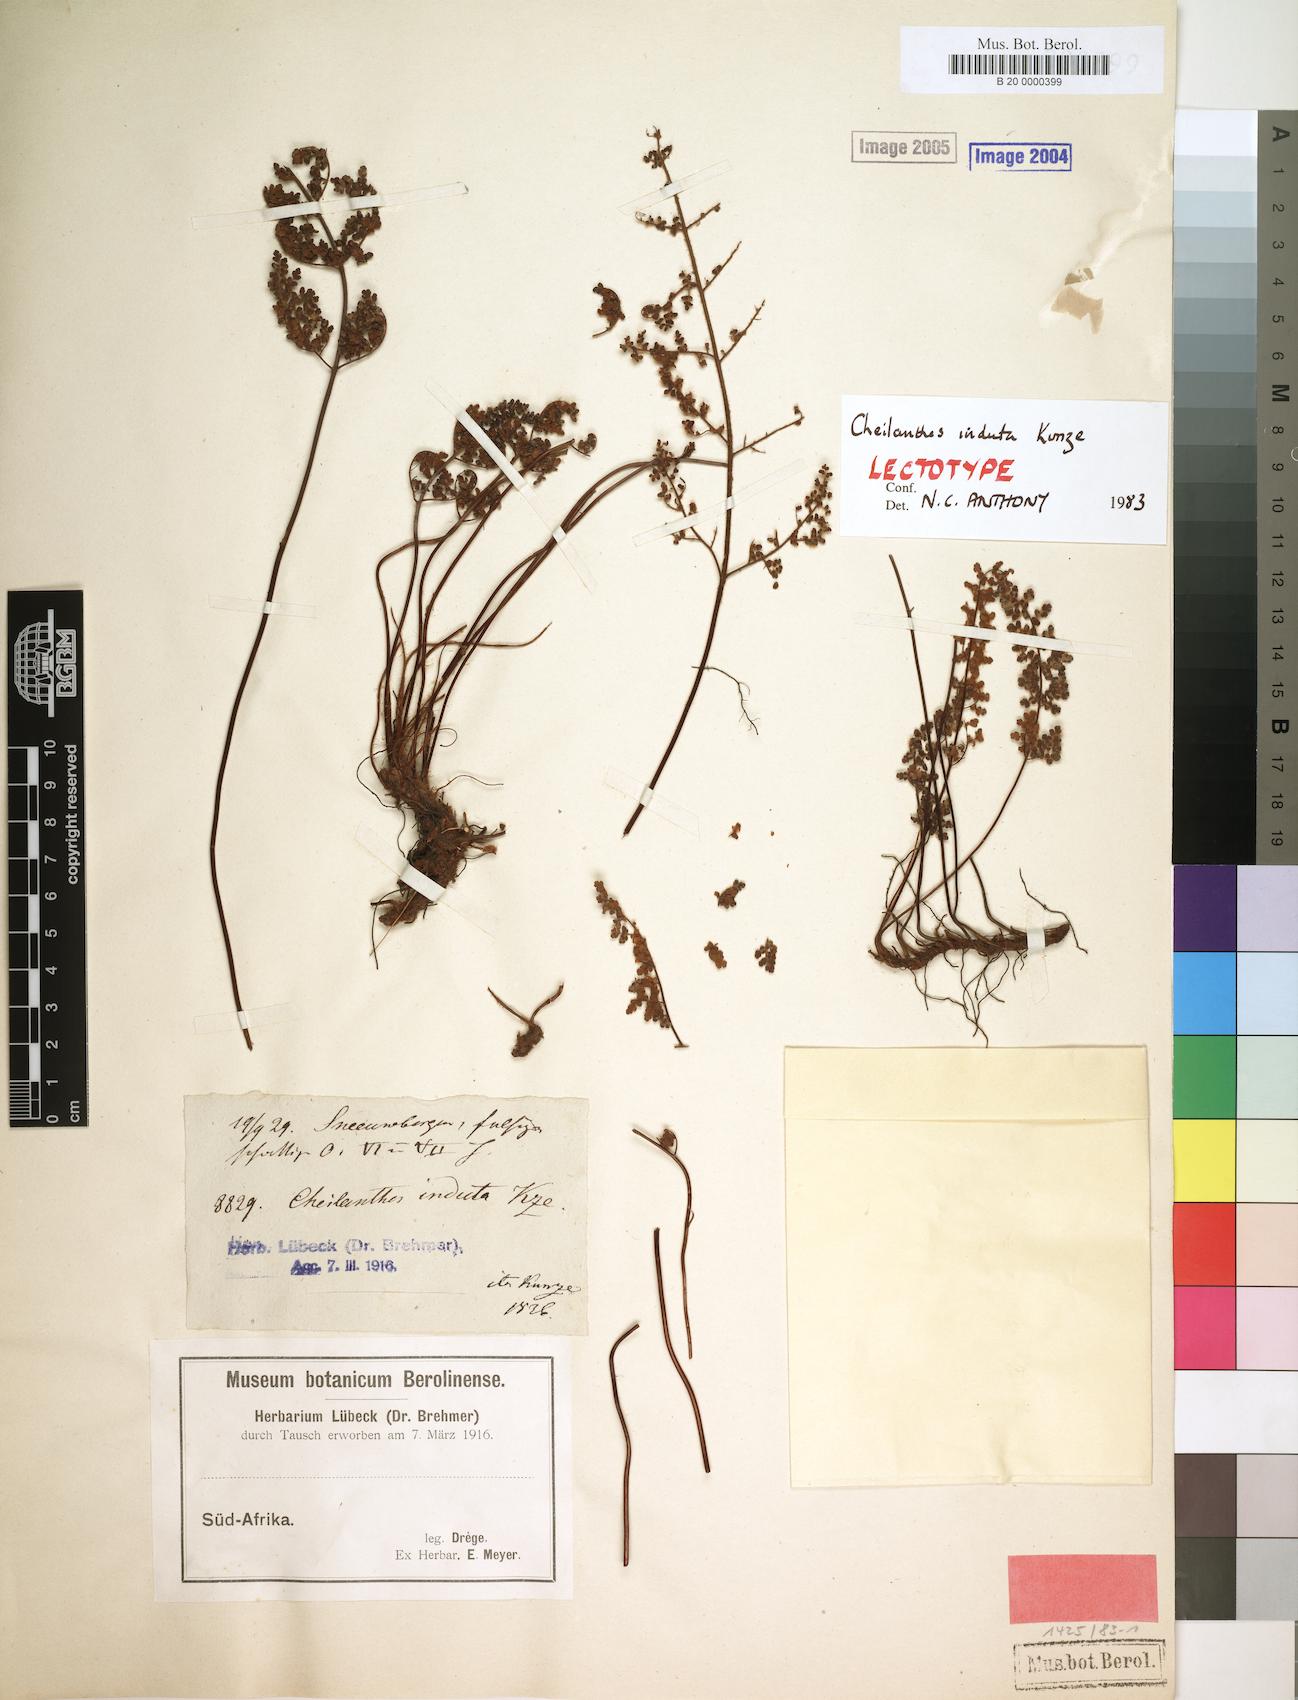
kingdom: Plantae
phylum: Tracheophyta
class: Polypodiopsida
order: Polypodiales
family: Pteridaceae
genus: Cheilanthes
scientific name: Cheilanthes induta
